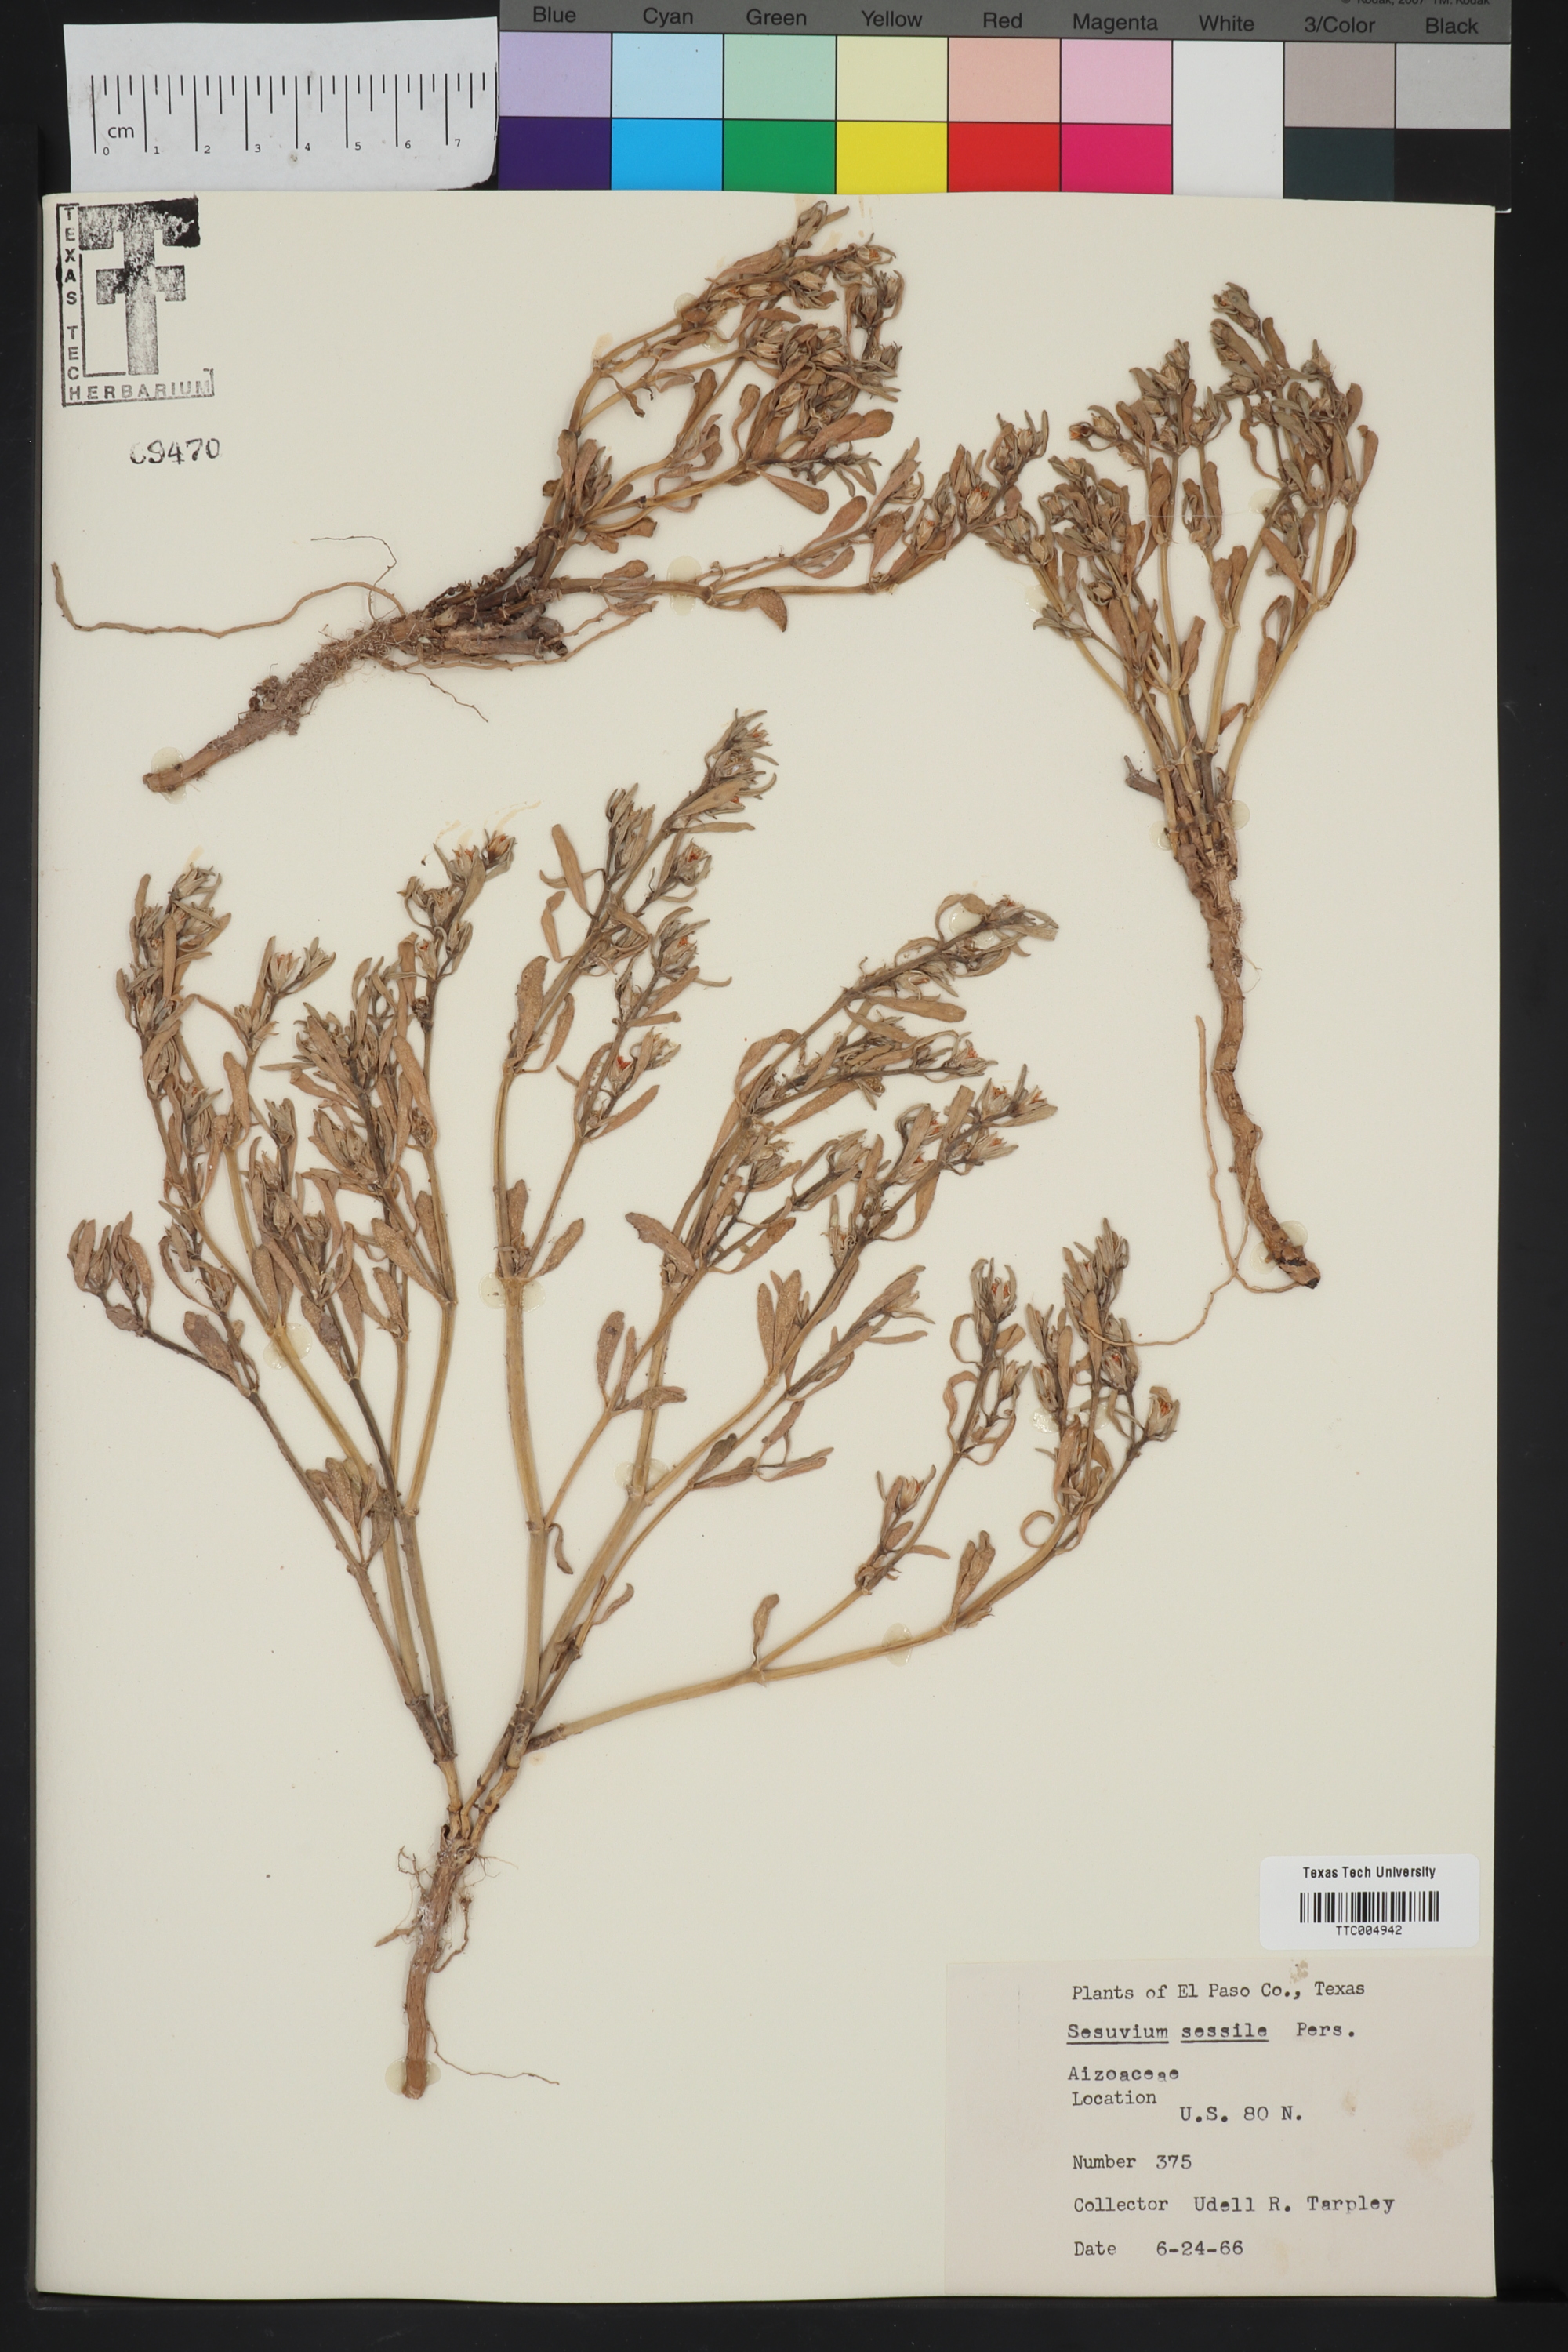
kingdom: Plantae
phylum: Tracheophyta
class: Magnoliopsida
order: Caryophyllales
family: Aizoaceae
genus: Sesuvium
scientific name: Sesuvium portulacastrum
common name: Sea-purslane
